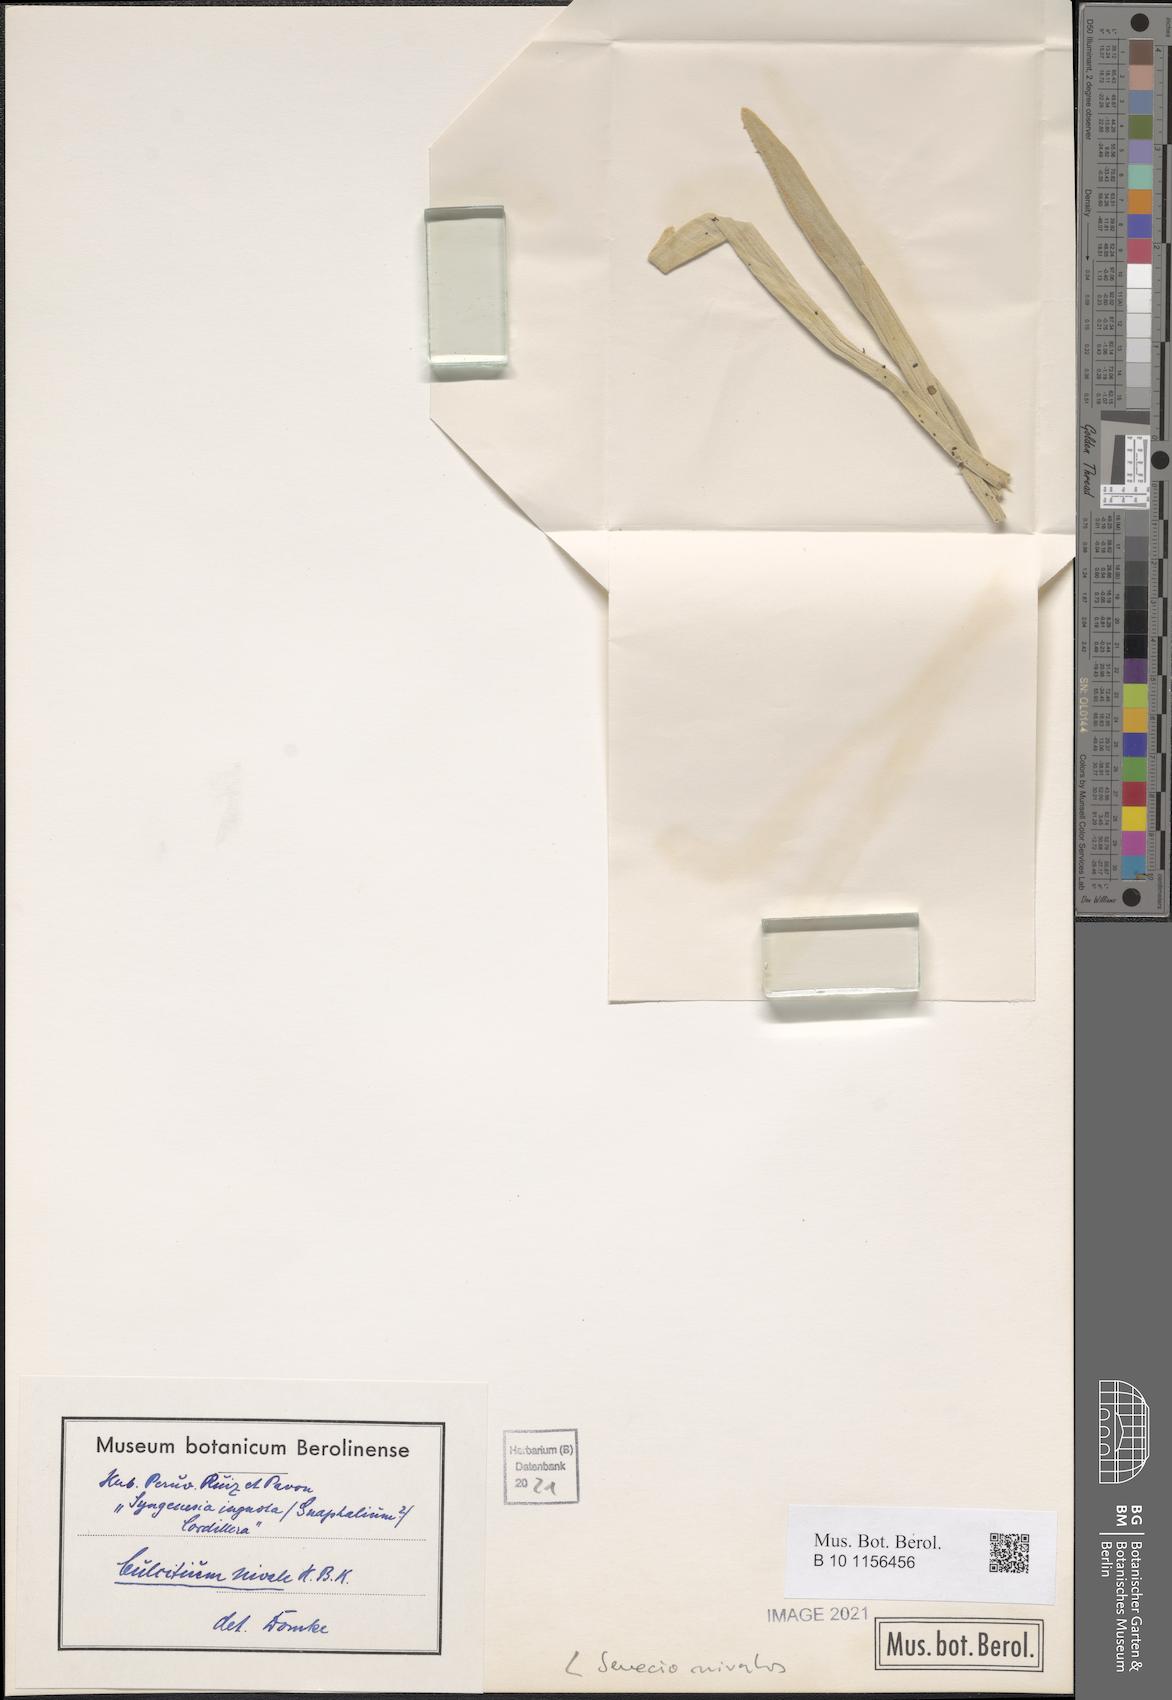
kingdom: Plantae
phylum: Tracheophyta
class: Magnoliopsida
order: Asterales
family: Asteraceae
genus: Culcitium
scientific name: Culcitium nivale
